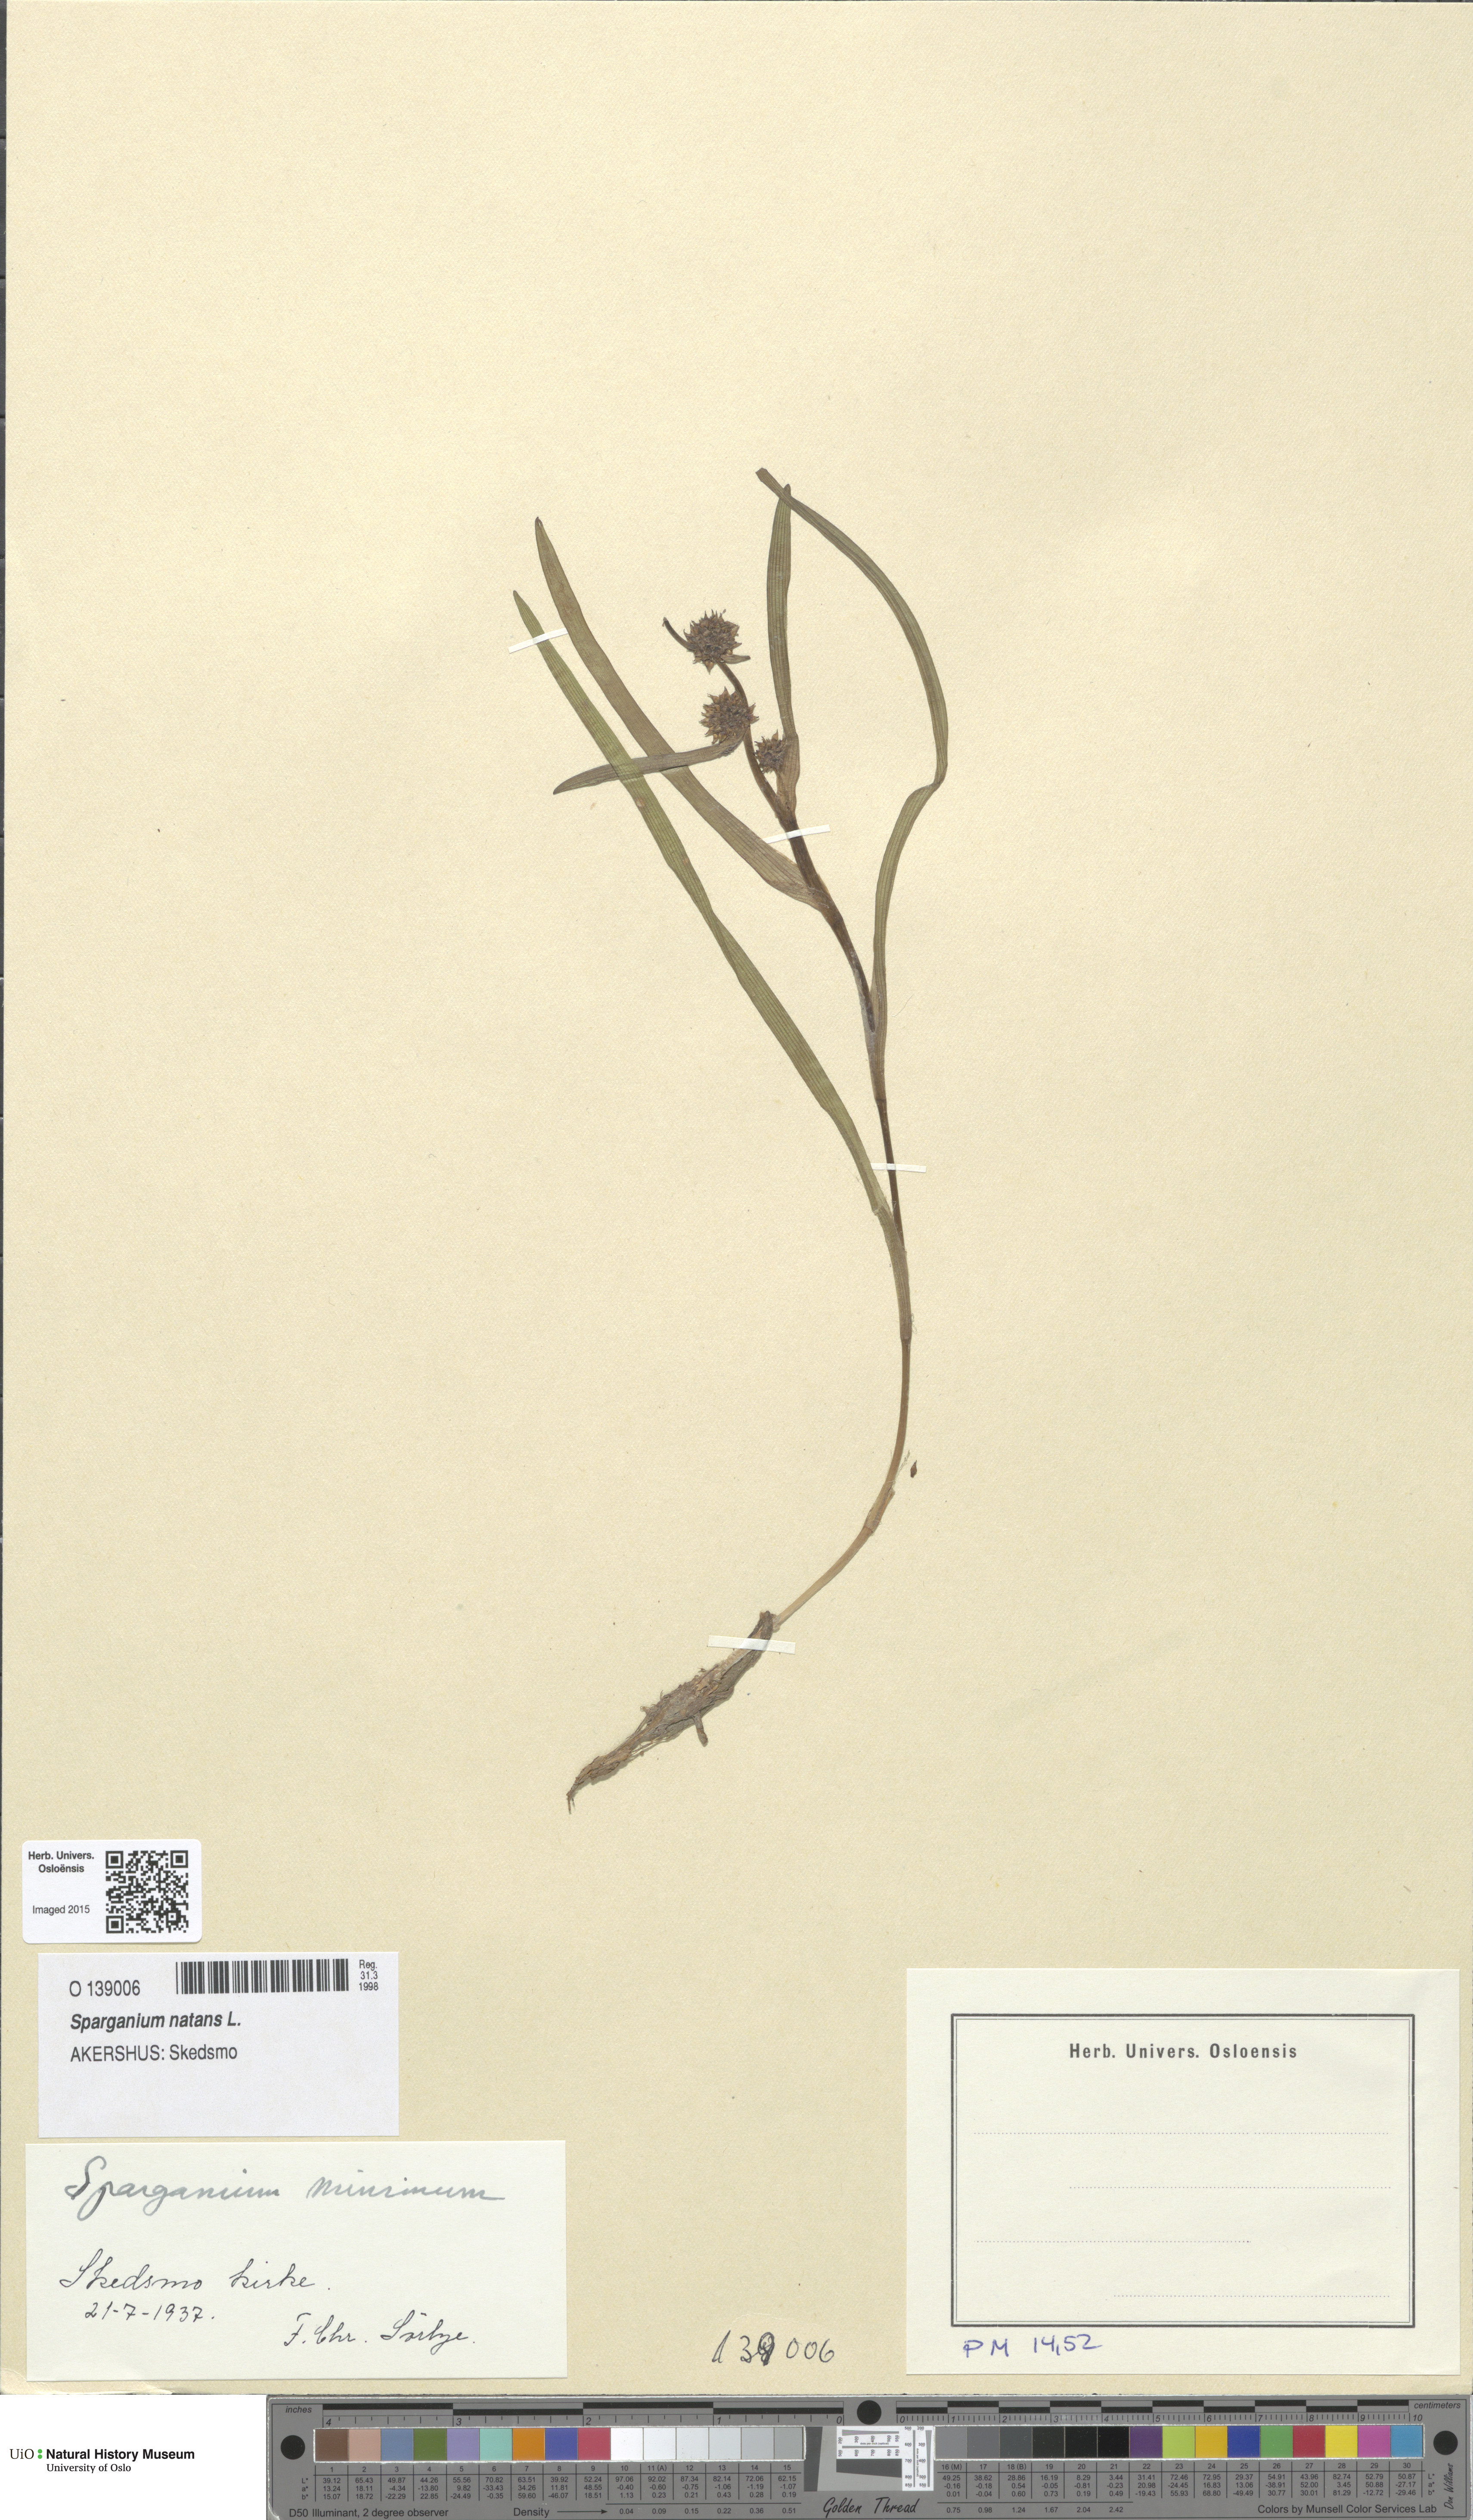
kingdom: Plantae
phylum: Tracheophyta
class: Liliopsida
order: Poales
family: Typhaceae
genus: Sparganium
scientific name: Sparganium natans
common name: Least bur-reed
